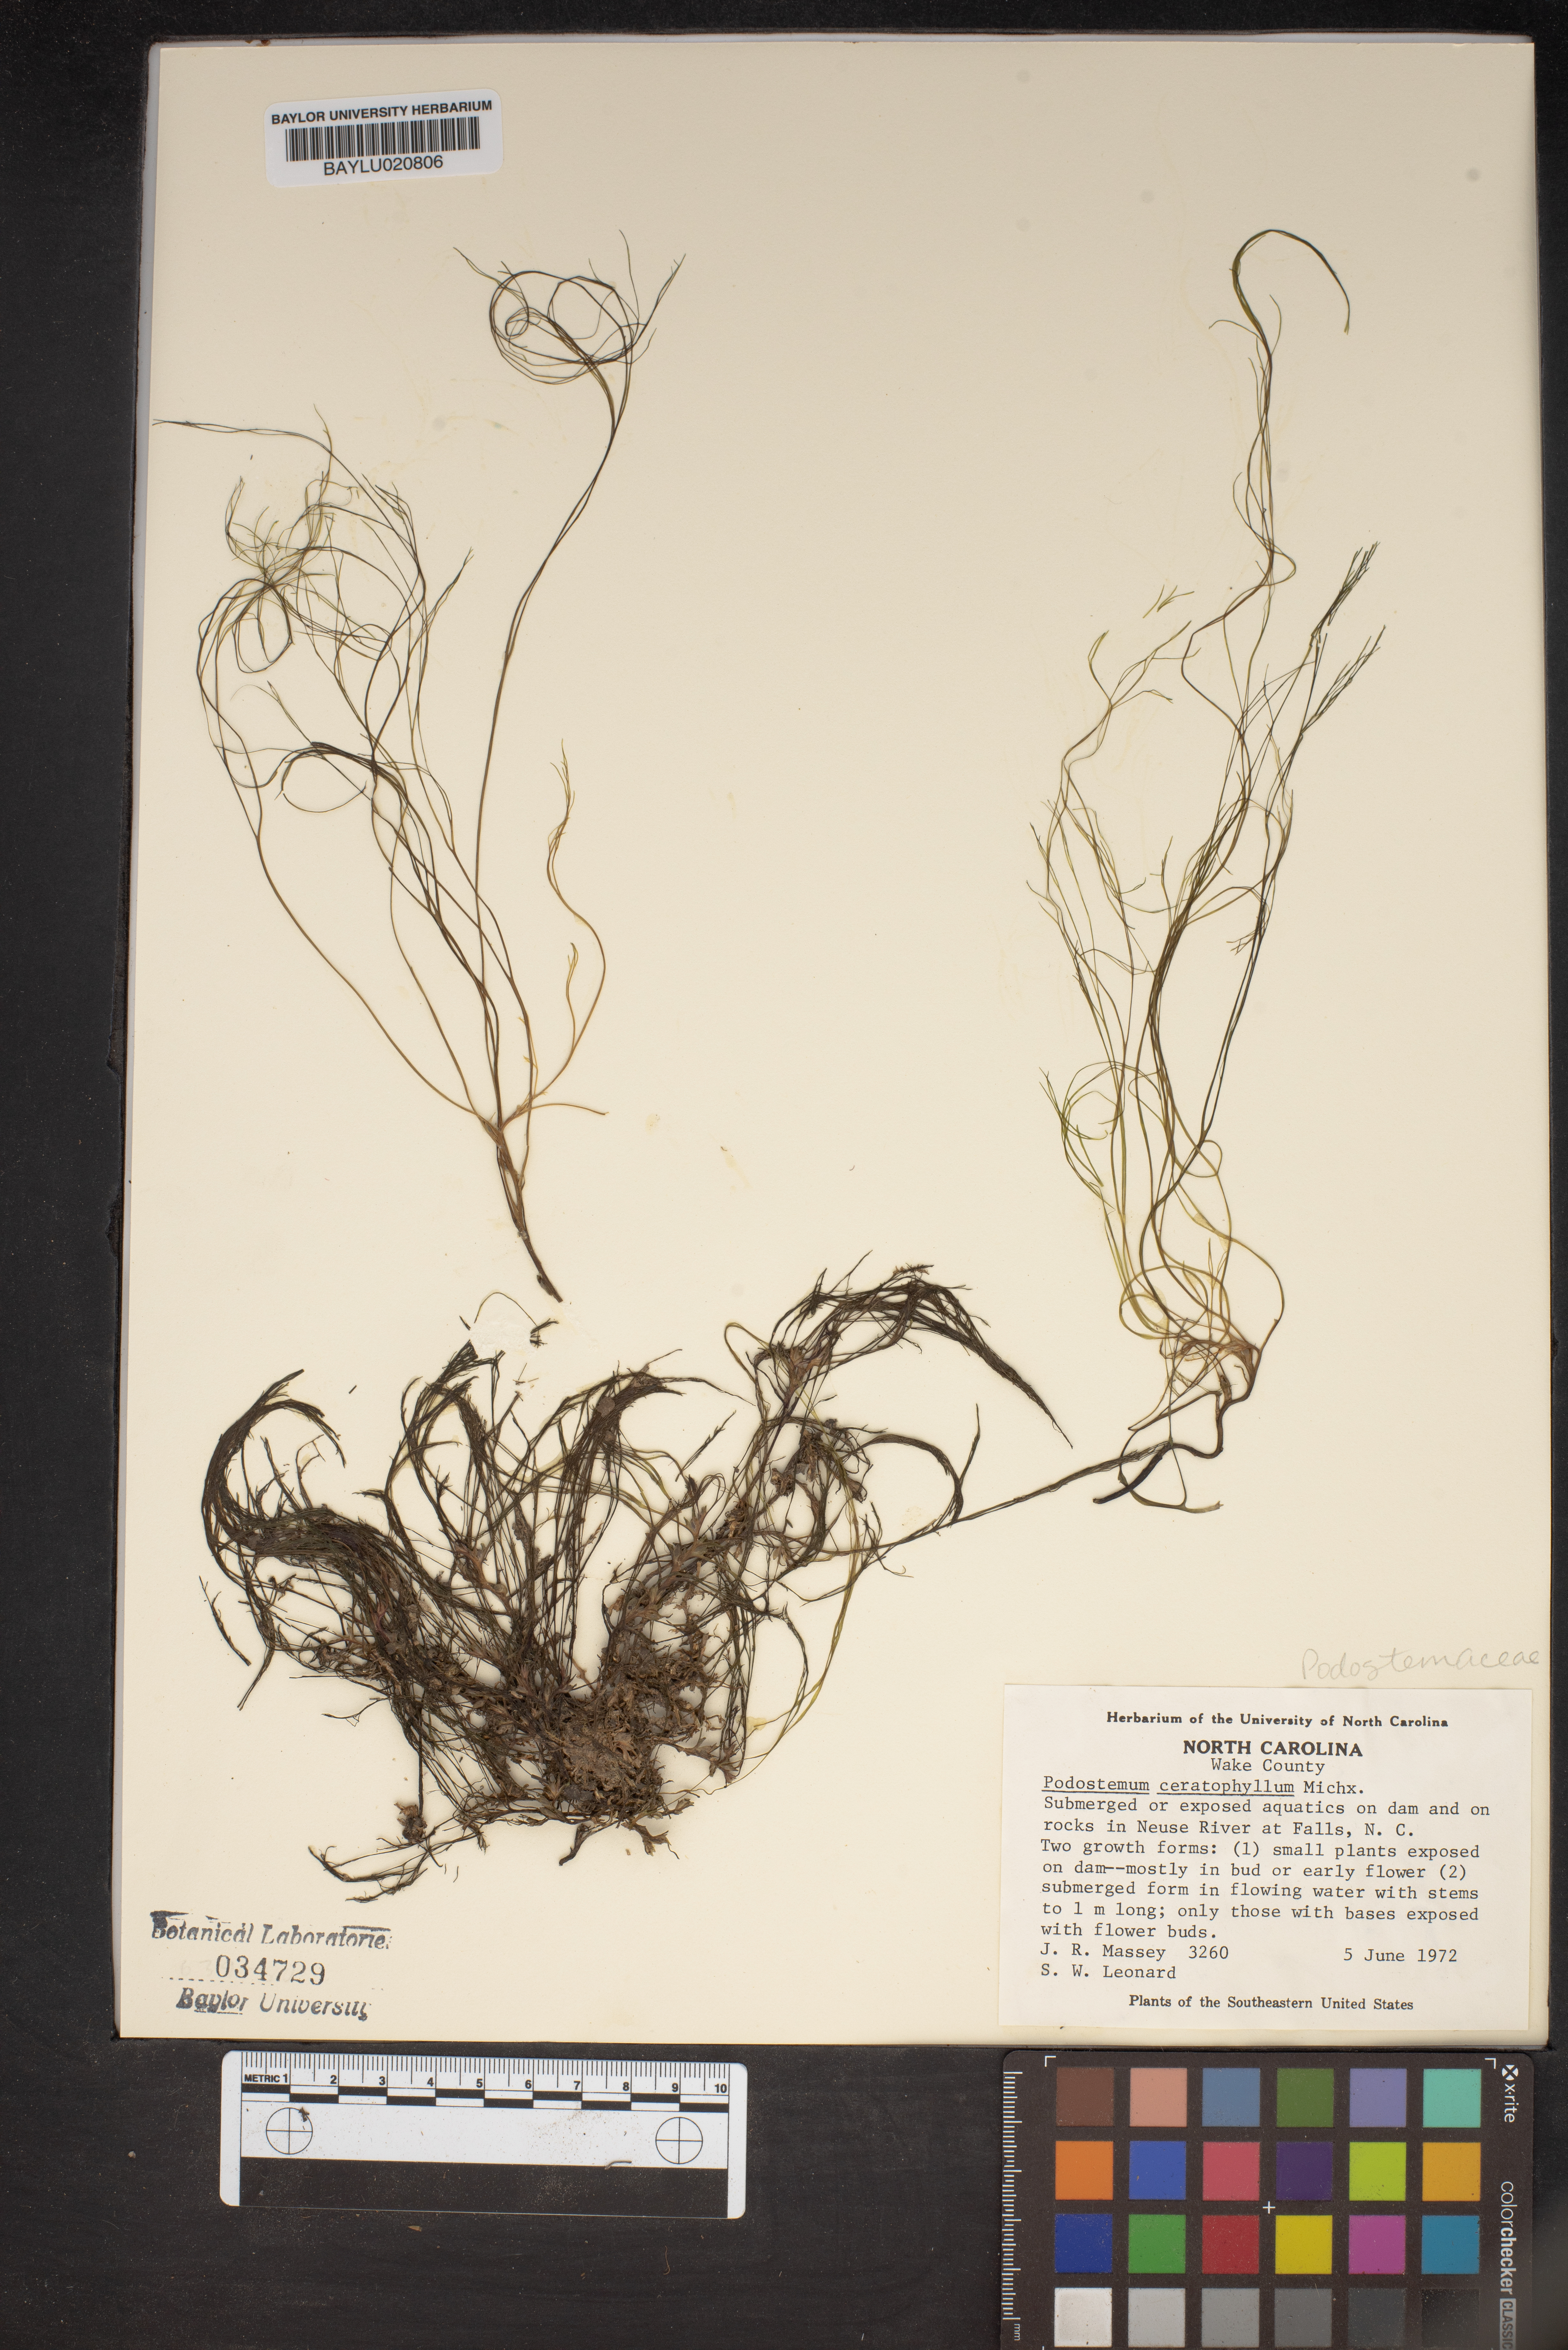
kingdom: Plantae
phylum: Tracheophyta
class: Magnoliopsida
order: Malpighiales
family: Podostemaceae
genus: Podostemum
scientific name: Podostemum ceratophyllum
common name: Horn-leaved riverweed
